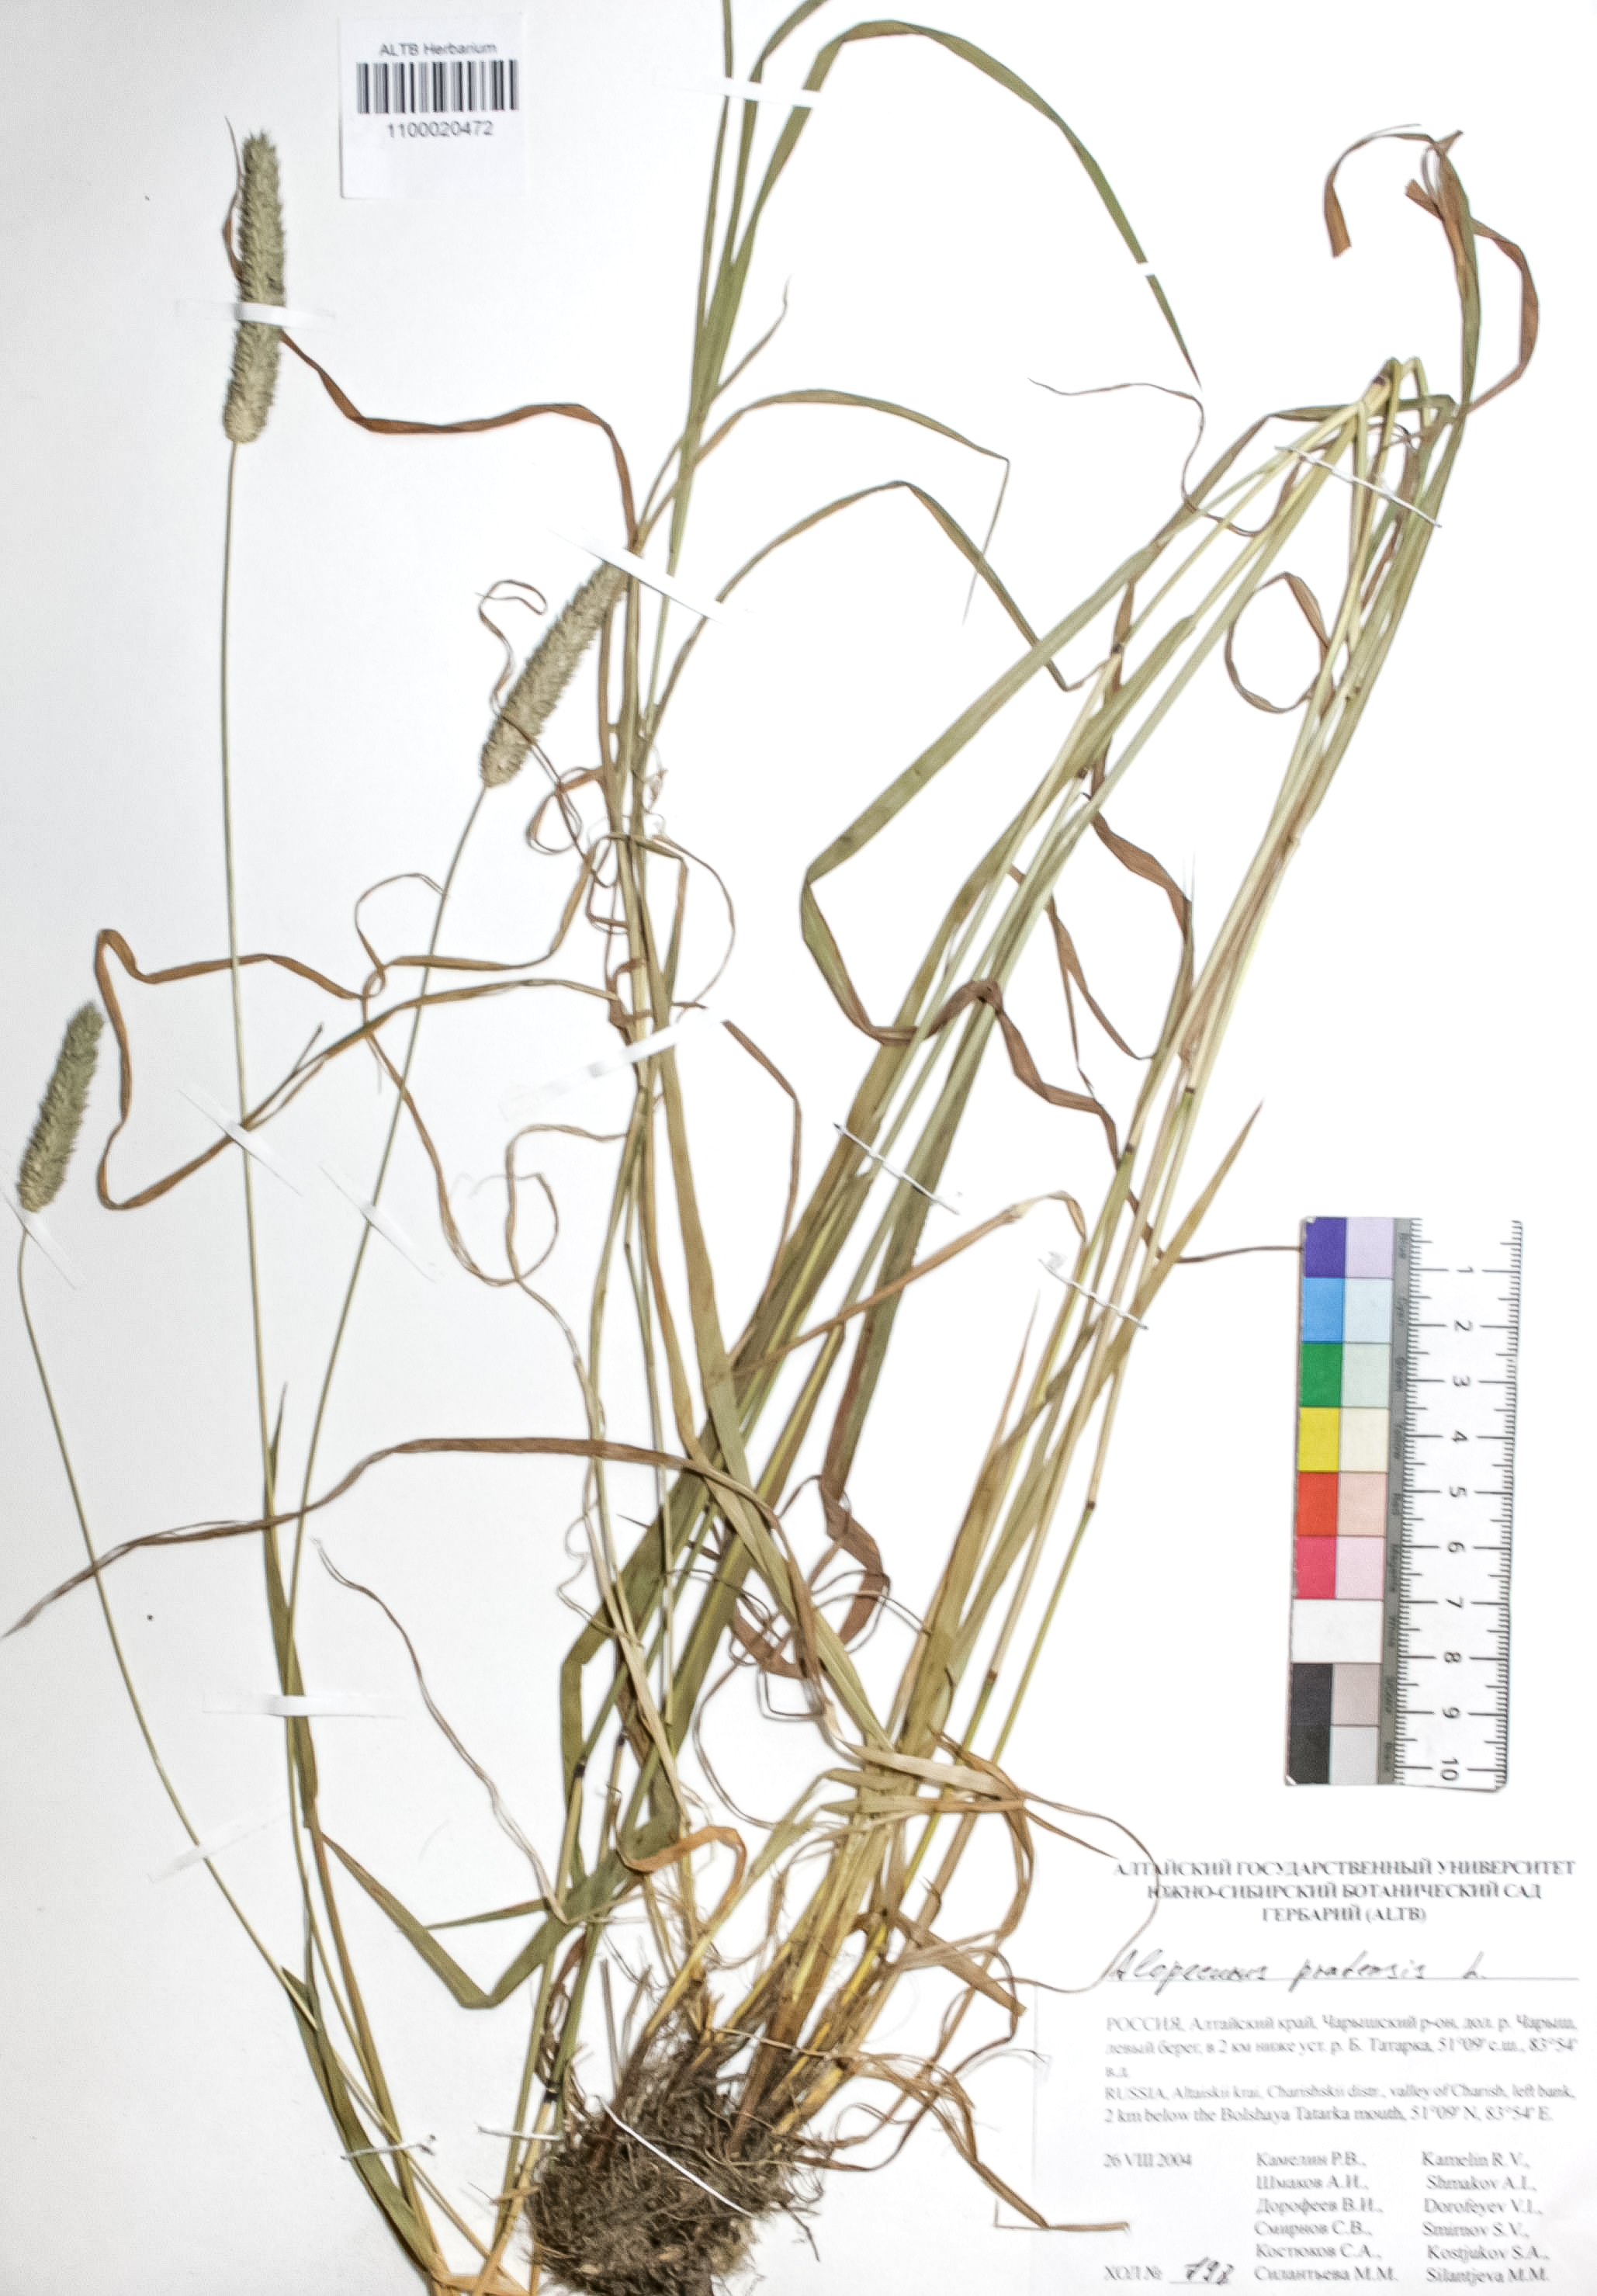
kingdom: Plantae
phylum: Tracheophyta
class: Liliopsida
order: Poales
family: Poaceae
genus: Phleum
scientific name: Phleum pratense
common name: Timothy grass
